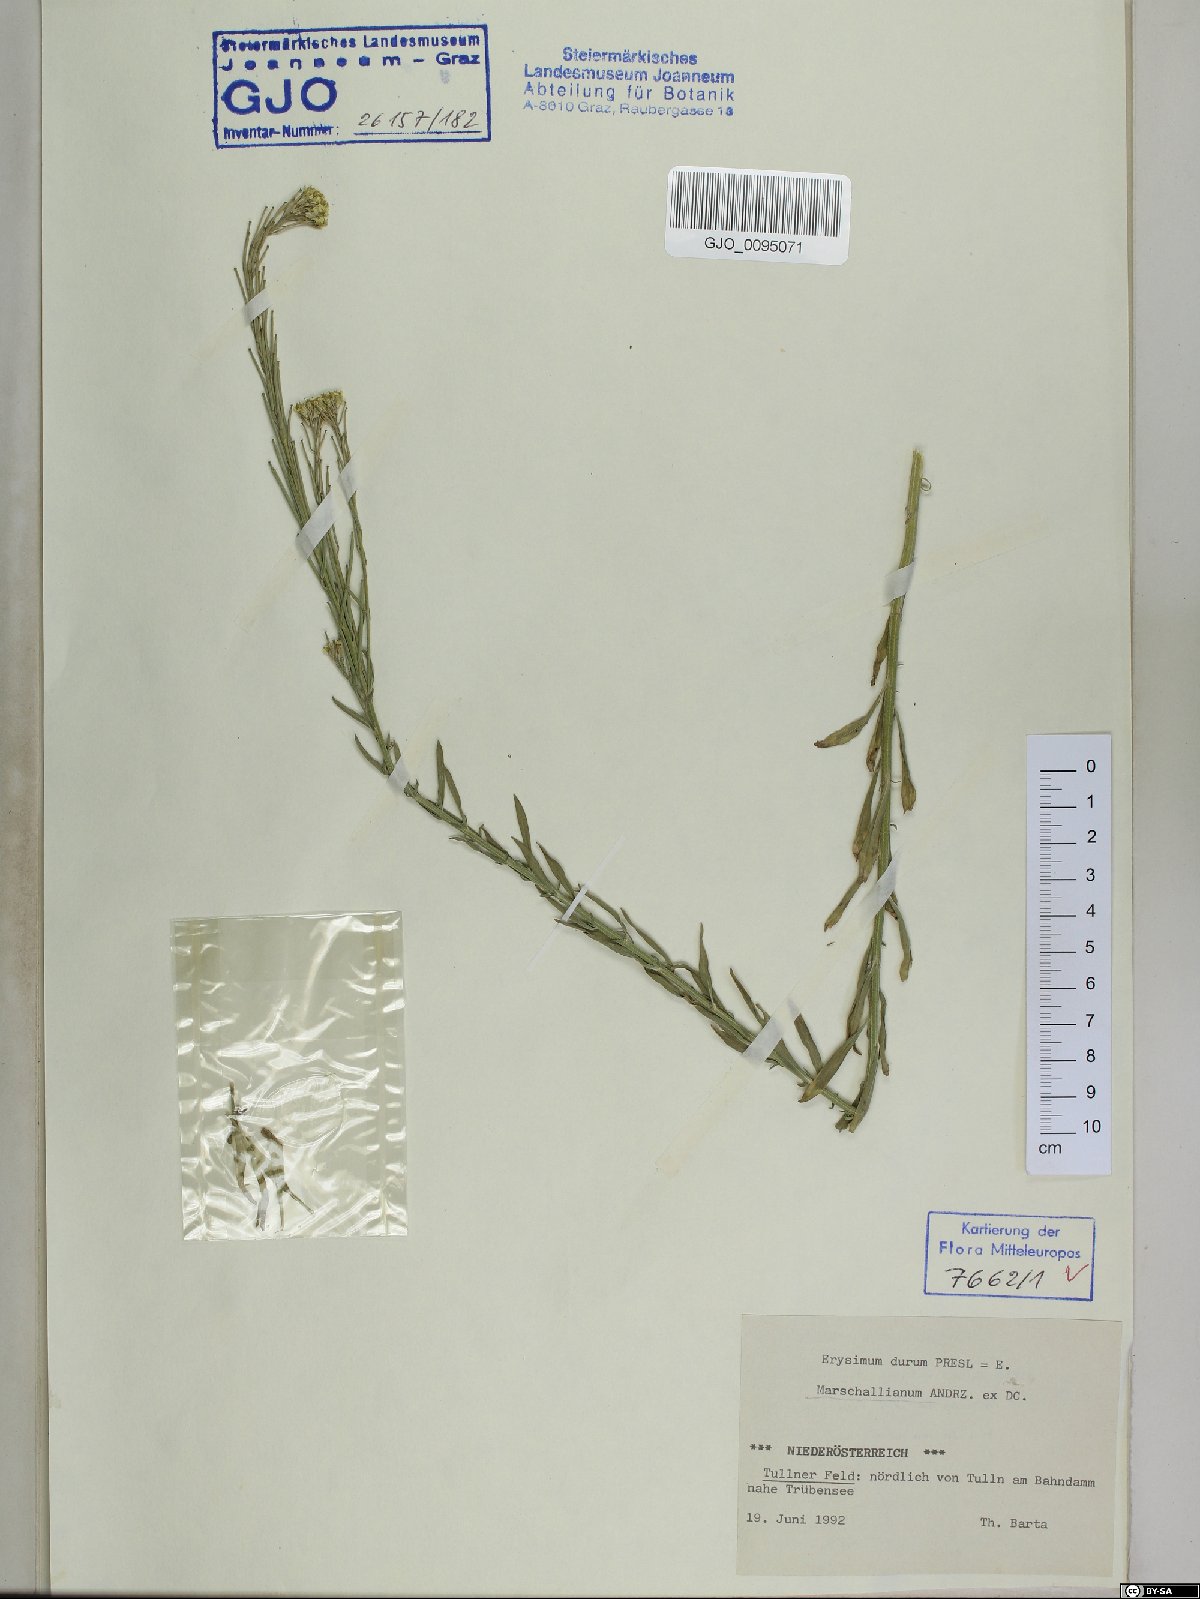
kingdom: Plantae
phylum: Tracheophyta
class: Magnoliopsida
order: Brassicales
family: Brassicaceae
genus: Erysimum
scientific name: Erysimum marschallianum
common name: Hard wallflower
